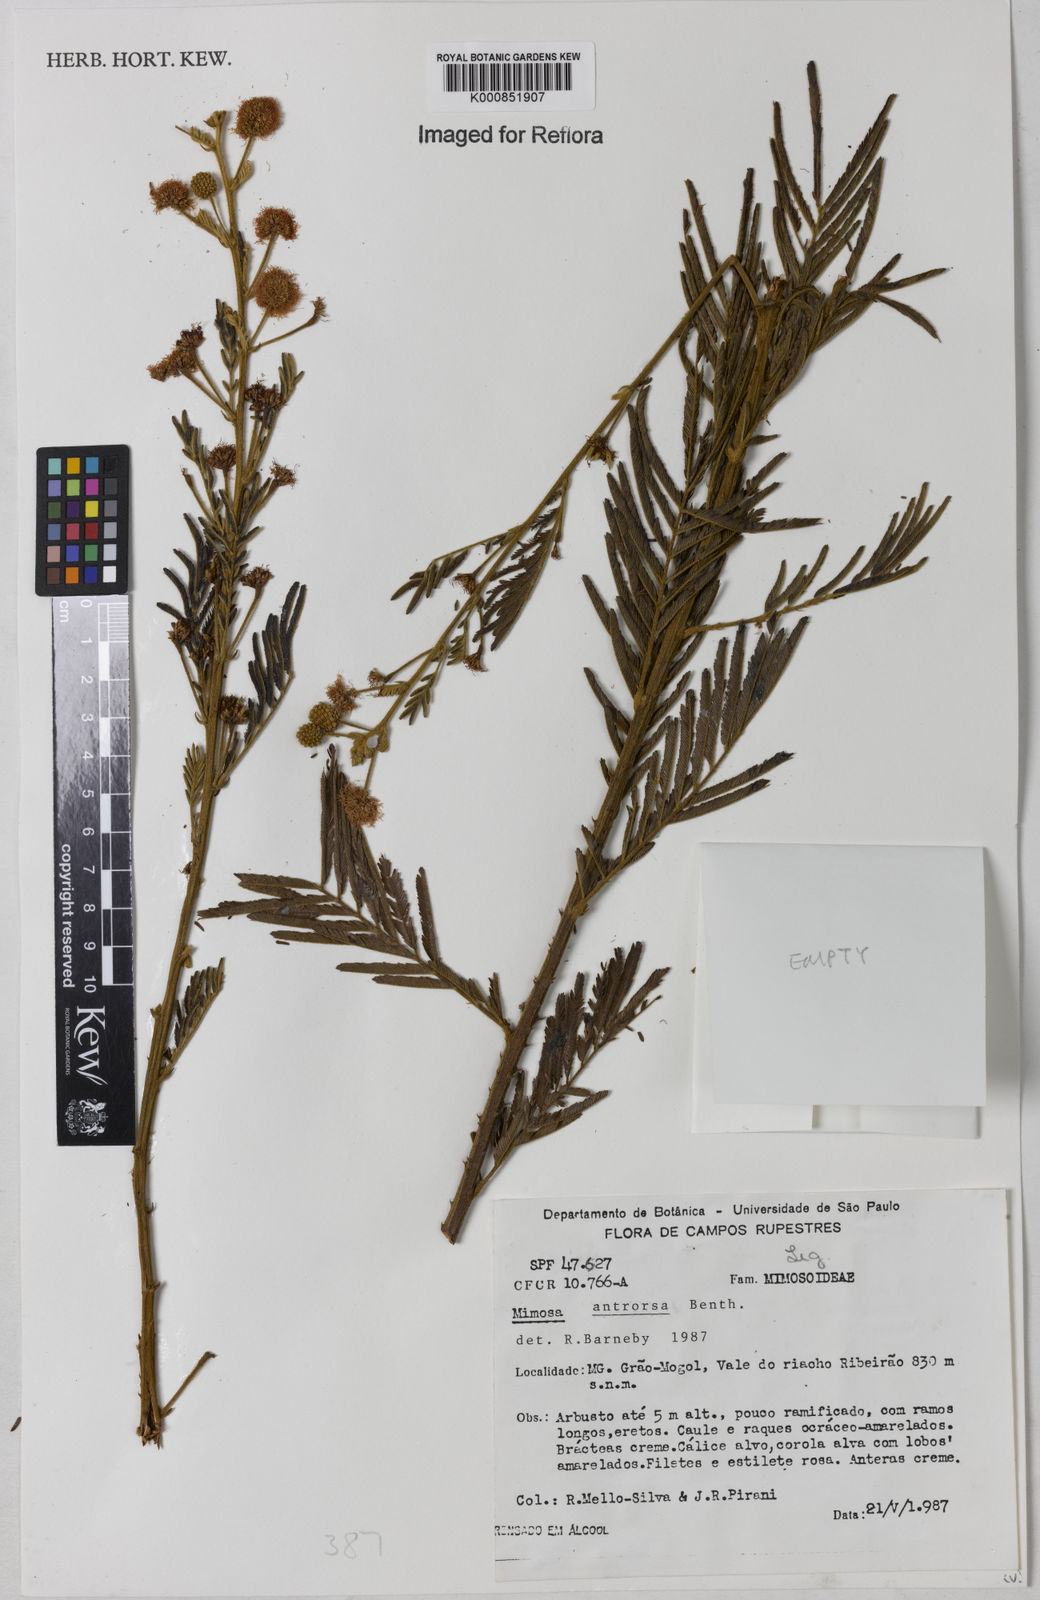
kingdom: Plantae
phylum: Tracheophyta
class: Magnoliopsida
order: Fabales
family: Fabaceae
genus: Mimosa
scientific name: Mimosa antrorsa
